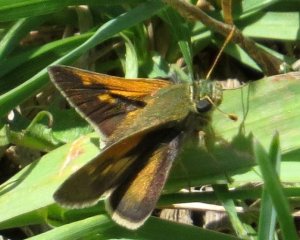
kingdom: Animalia
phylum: Arthropoda
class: Insecta
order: Lepidoptera
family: Hesperiidae
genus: Polites
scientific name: Polites themistocles
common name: Tawny-edged Skipper
